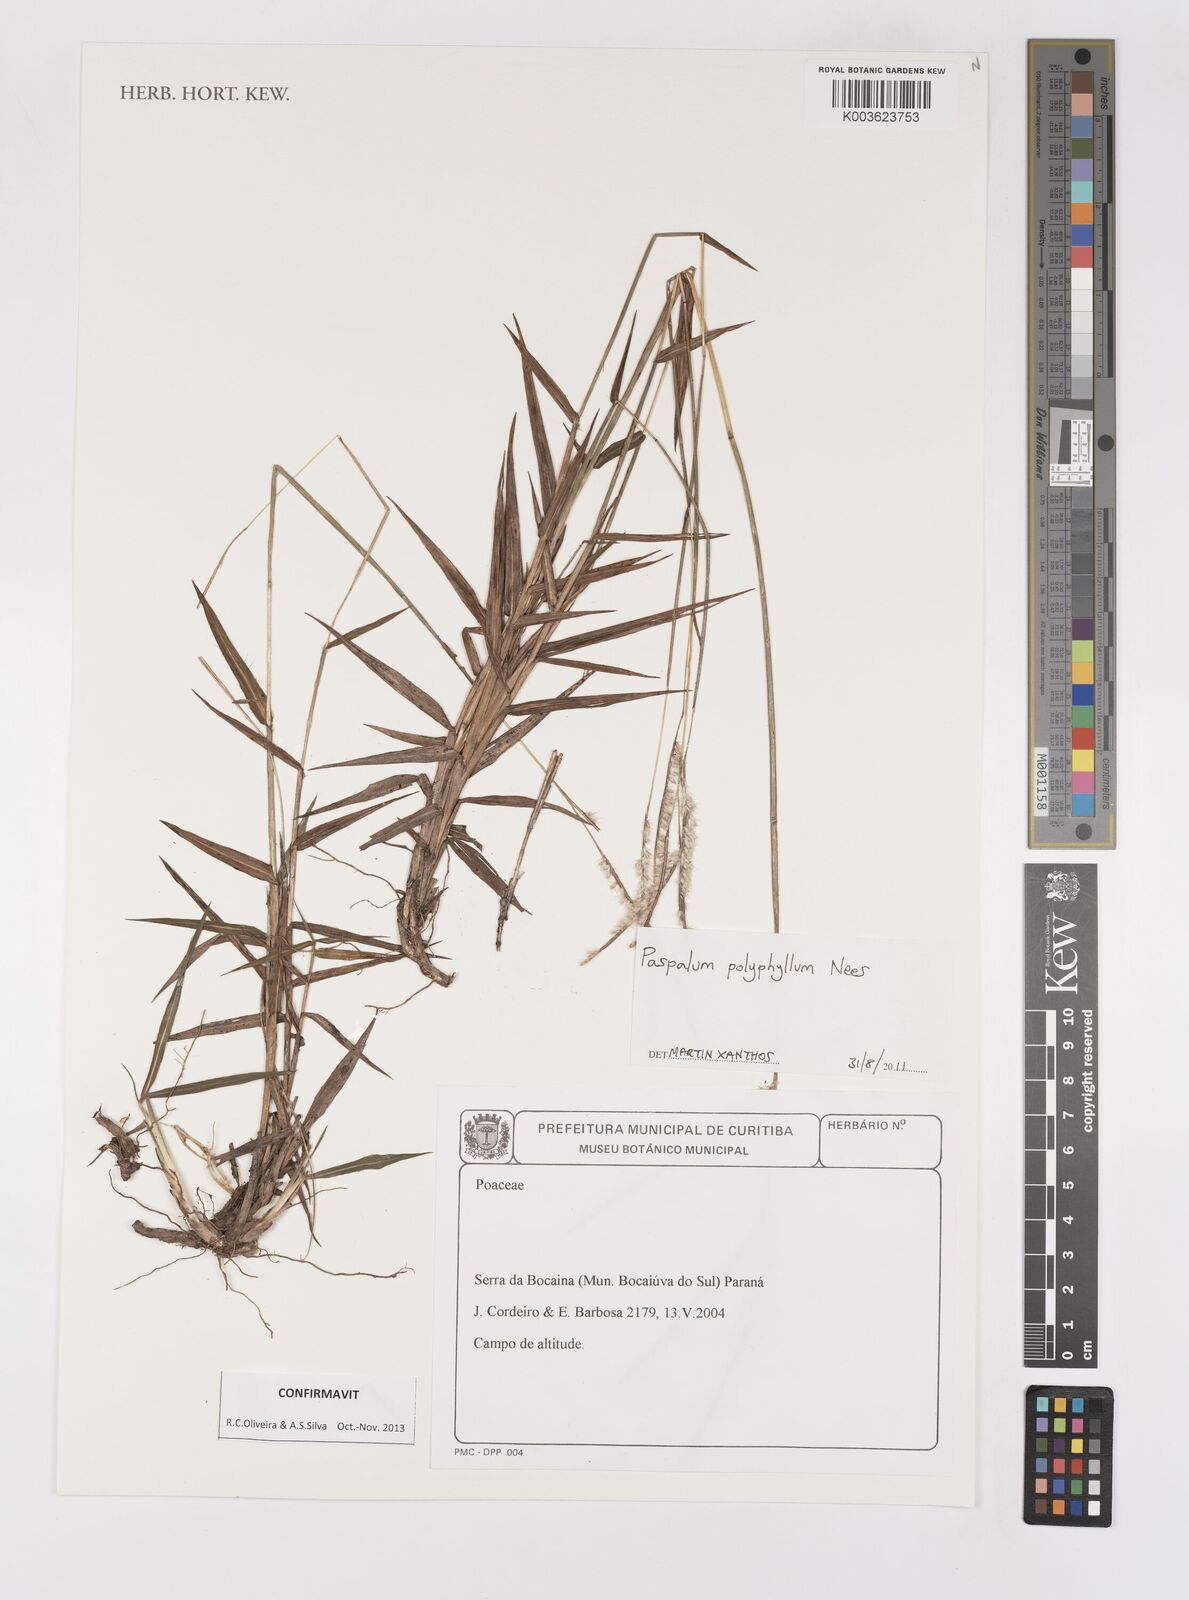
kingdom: Plantae
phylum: Tracheophyta
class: Liliopsida
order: Poales
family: Poaceae
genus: Paspalum
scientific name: Paspalum polyphyllum
